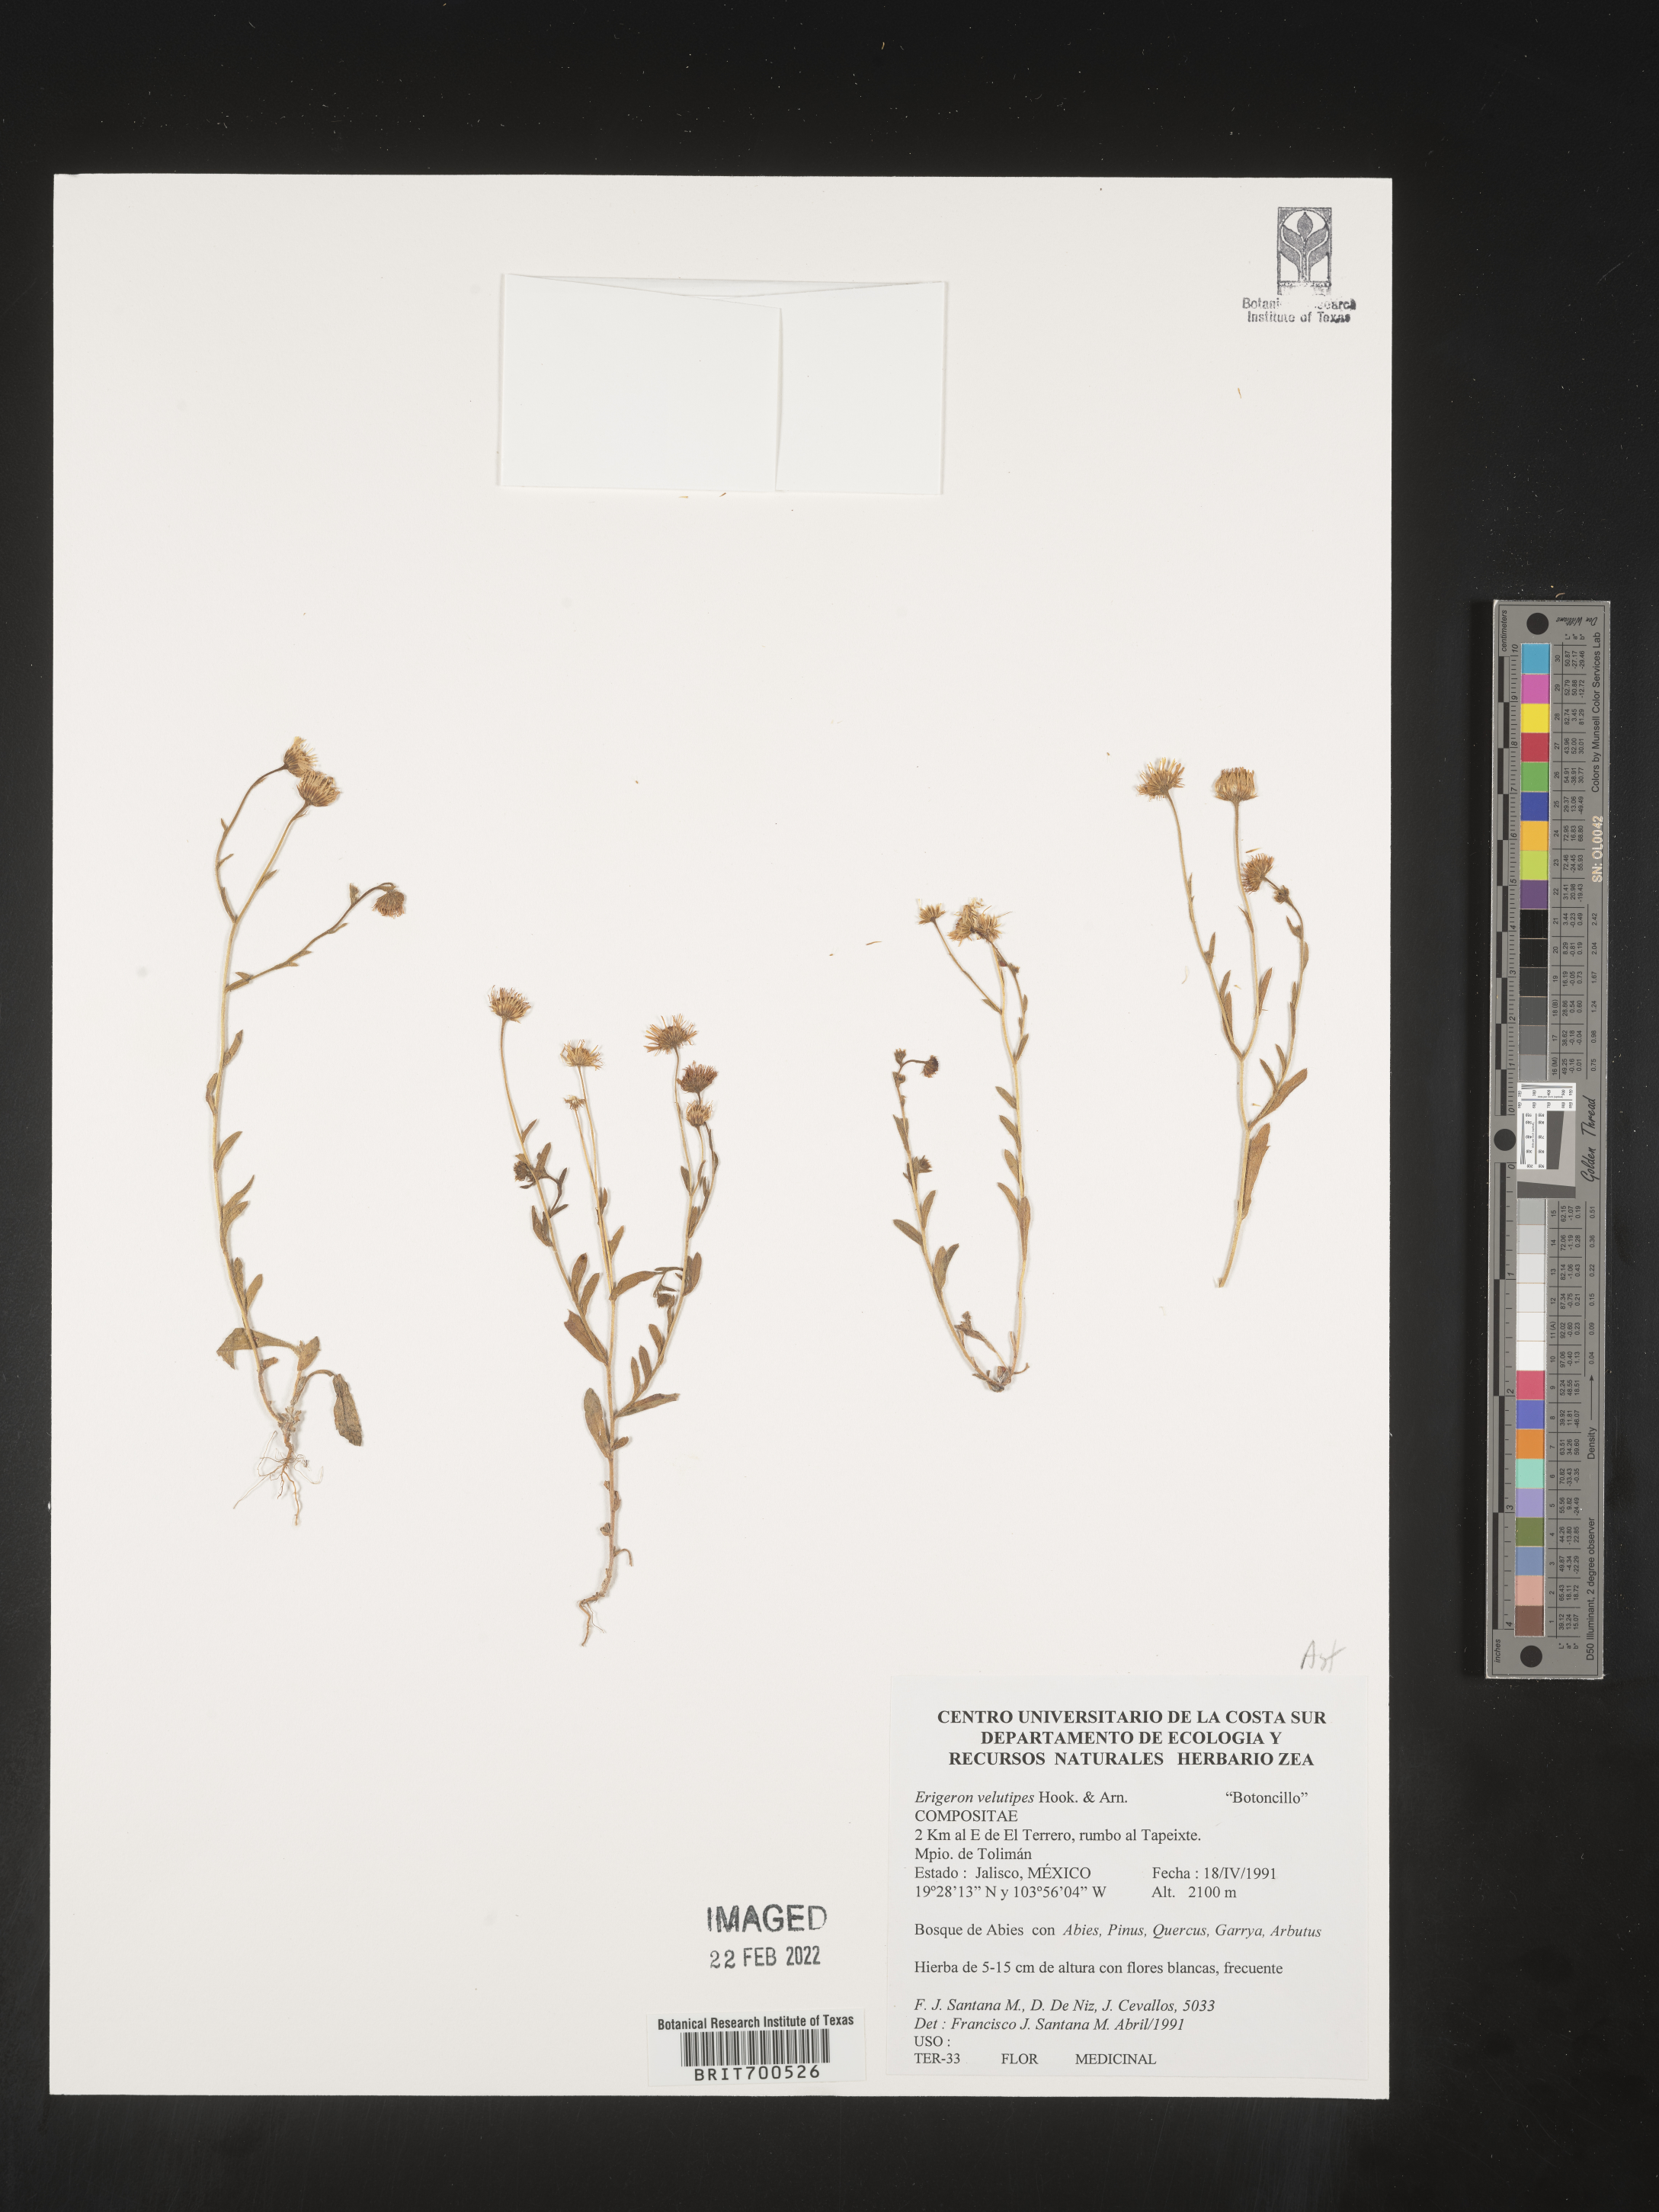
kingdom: Plantae
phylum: Tracheophyta
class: Magnoliopsida
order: Asterales
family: Asteraceae
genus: Erigeron
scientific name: Erigeron velutipes
